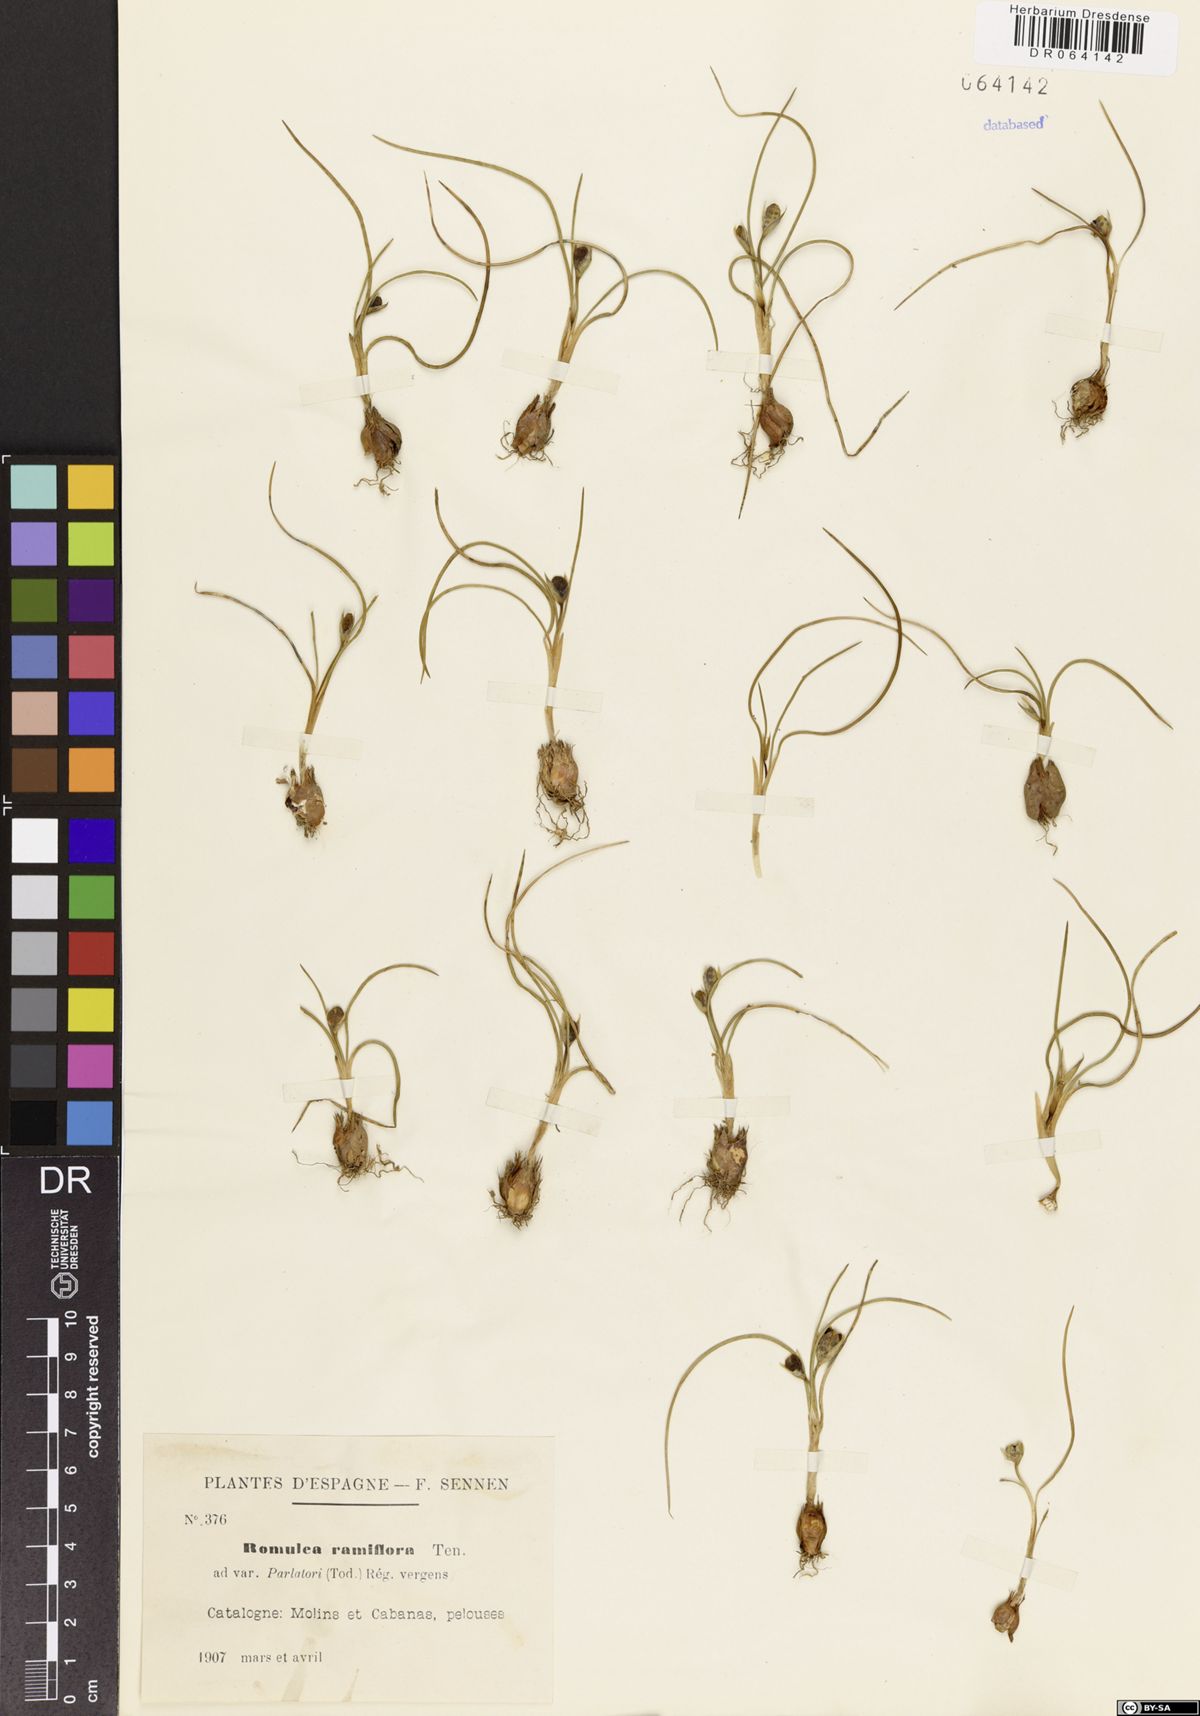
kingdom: Plantae
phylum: Tracheophyta
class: Liliopsida
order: Asparagales
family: Iridaceae
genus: Romulea
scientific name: Romulea ramiflora
